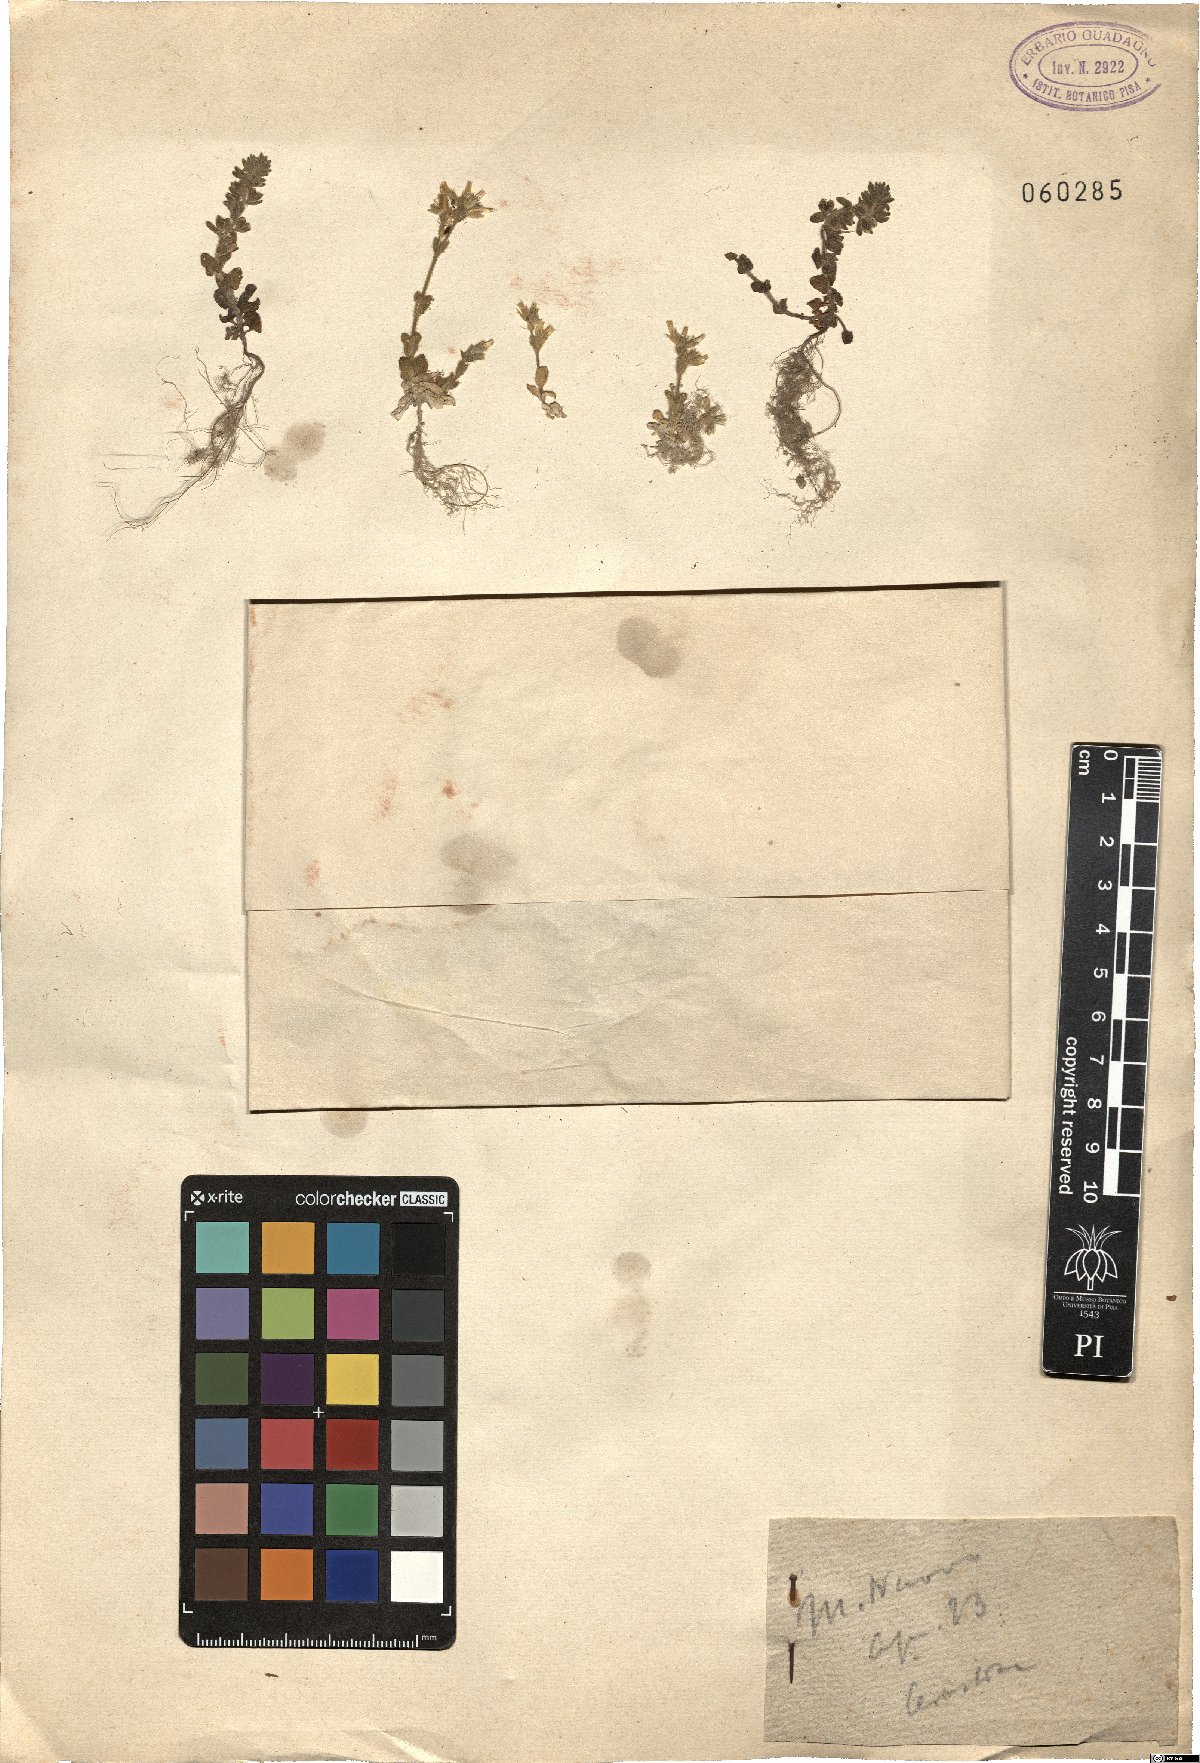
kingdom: Plantae
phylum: Tracheophyta
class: Magnoliopsida
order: Caryophyllales
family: Caryophyllaceae
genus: Cerastium
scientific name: Cerastium
